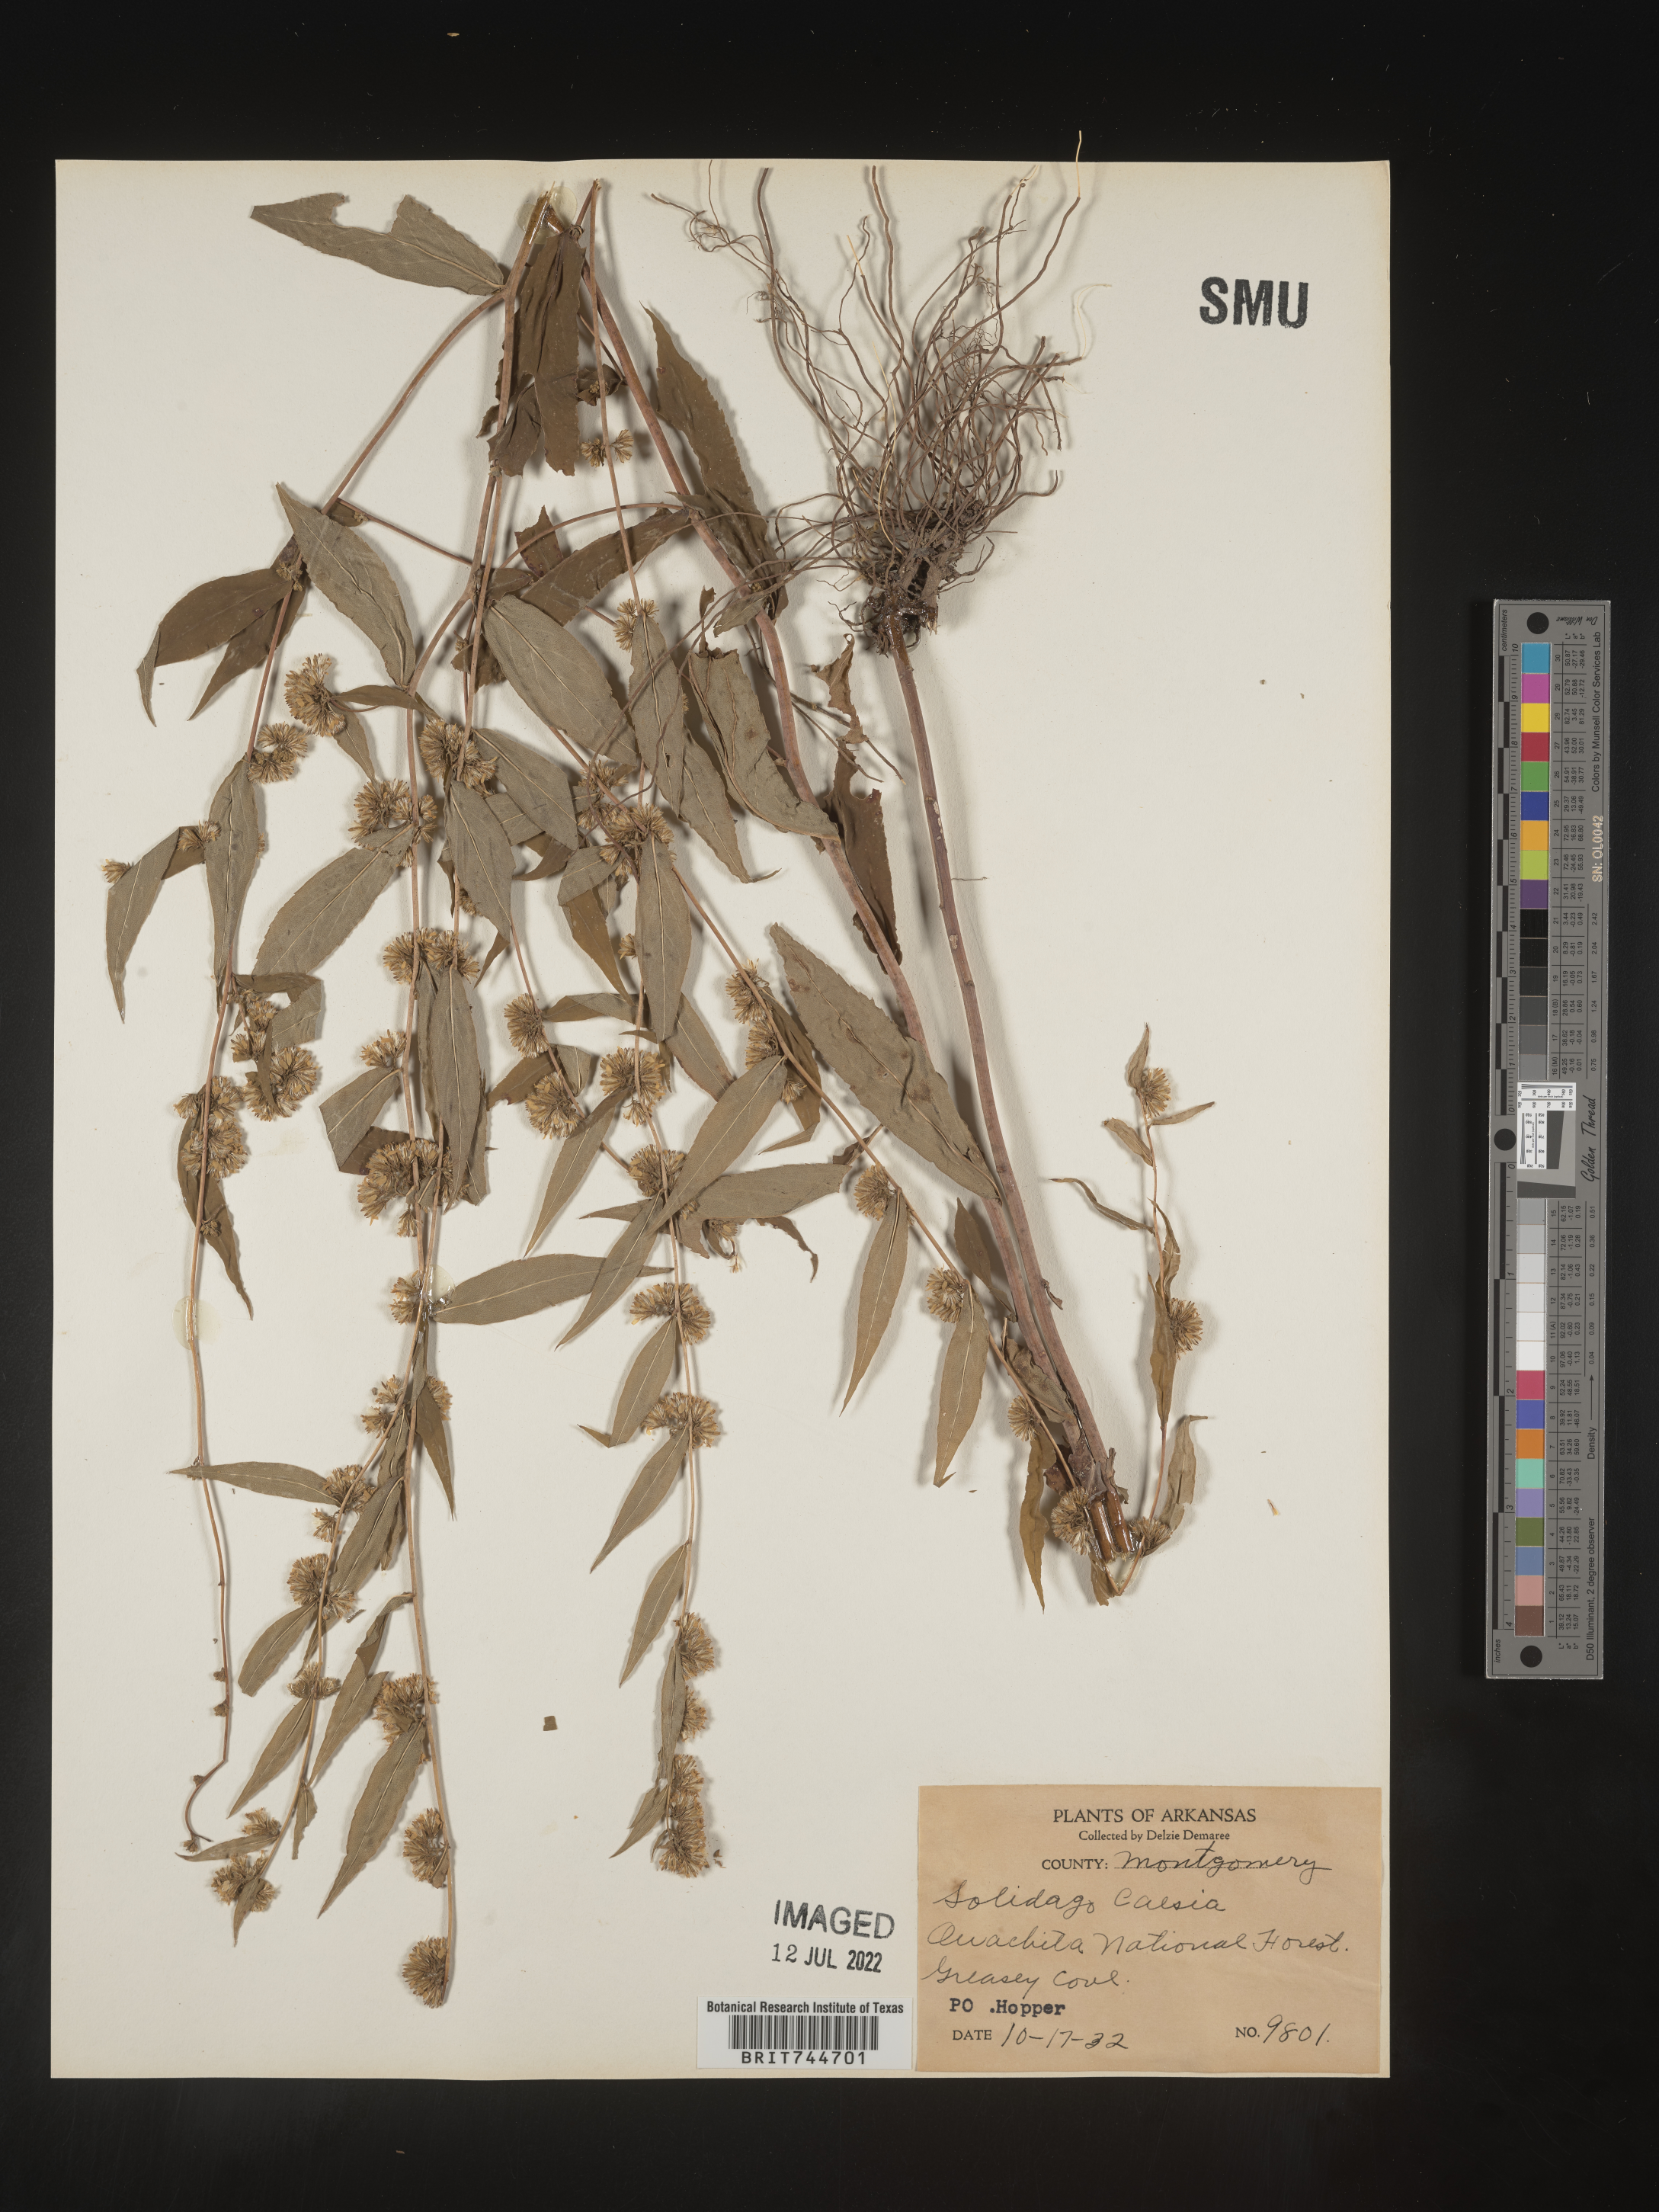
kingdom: Plantae
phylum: Tracheophyta
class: Magnoliopsida
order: Asterales
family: Asteraceae
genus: Solidago
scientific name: Solidago caesia
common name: Woodland goldenrod
